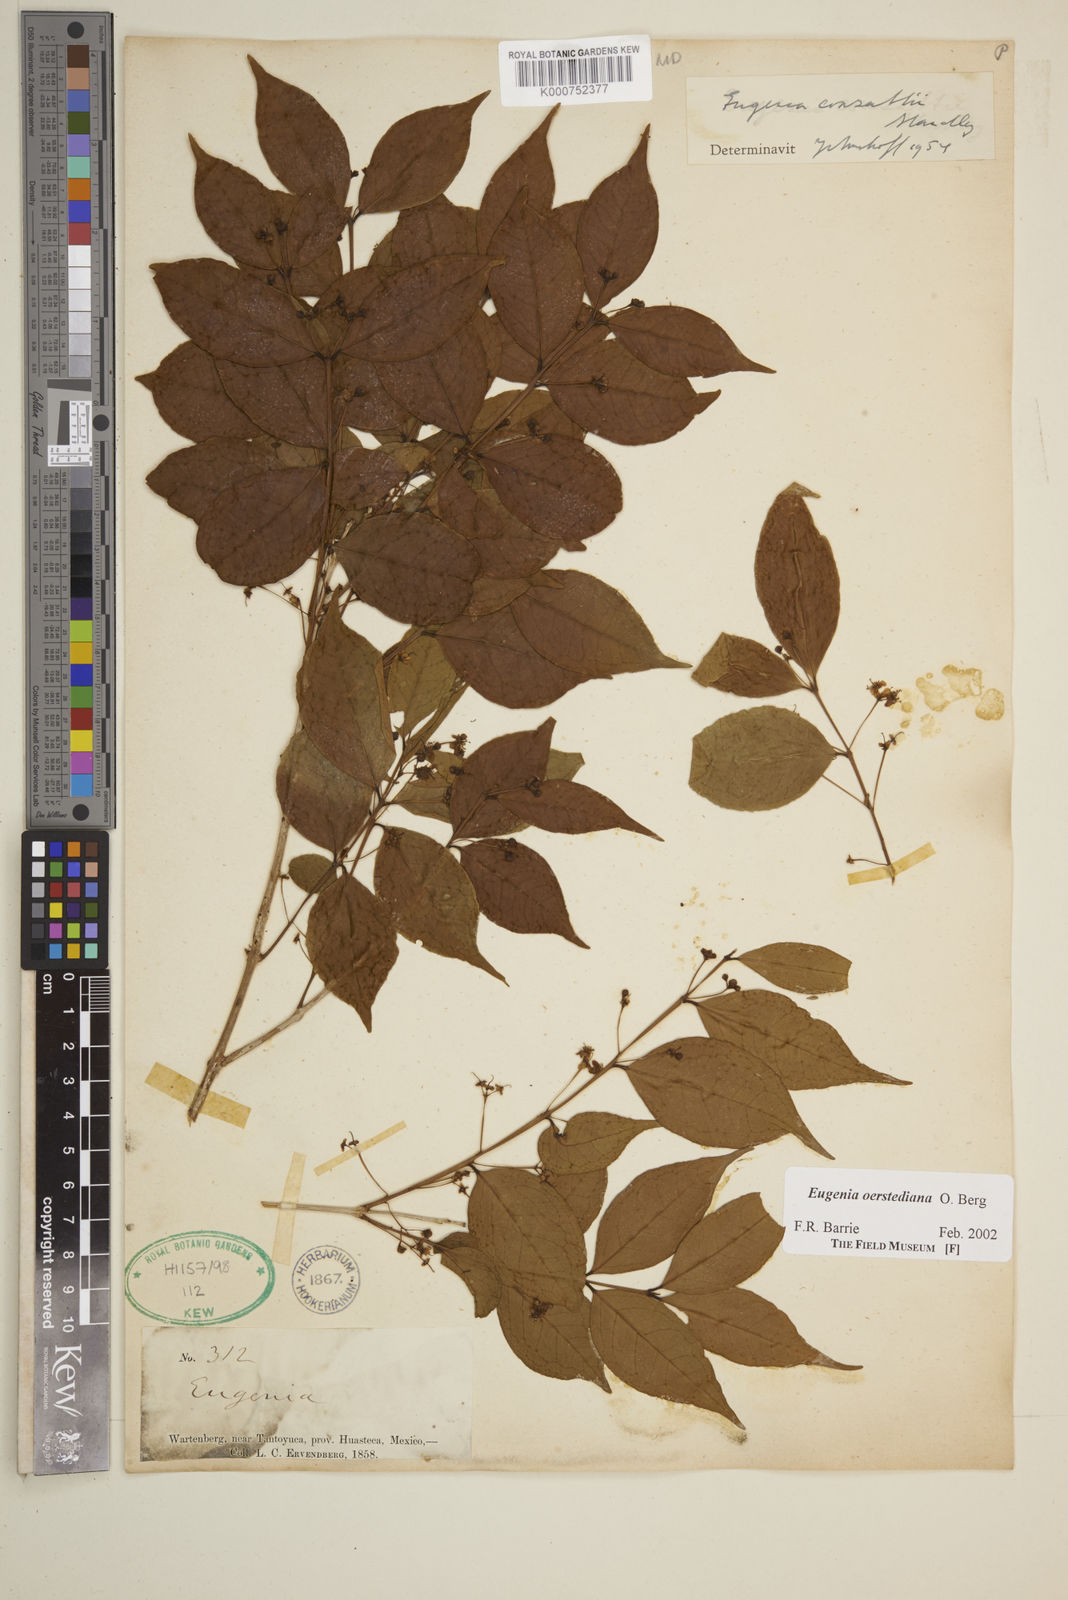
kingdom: Plantae
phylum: Tracheophyta
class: Magnoliopsida
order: Myrtales
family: Myrtaceae
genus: Eugenia
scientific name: Eugenia oerstediana
